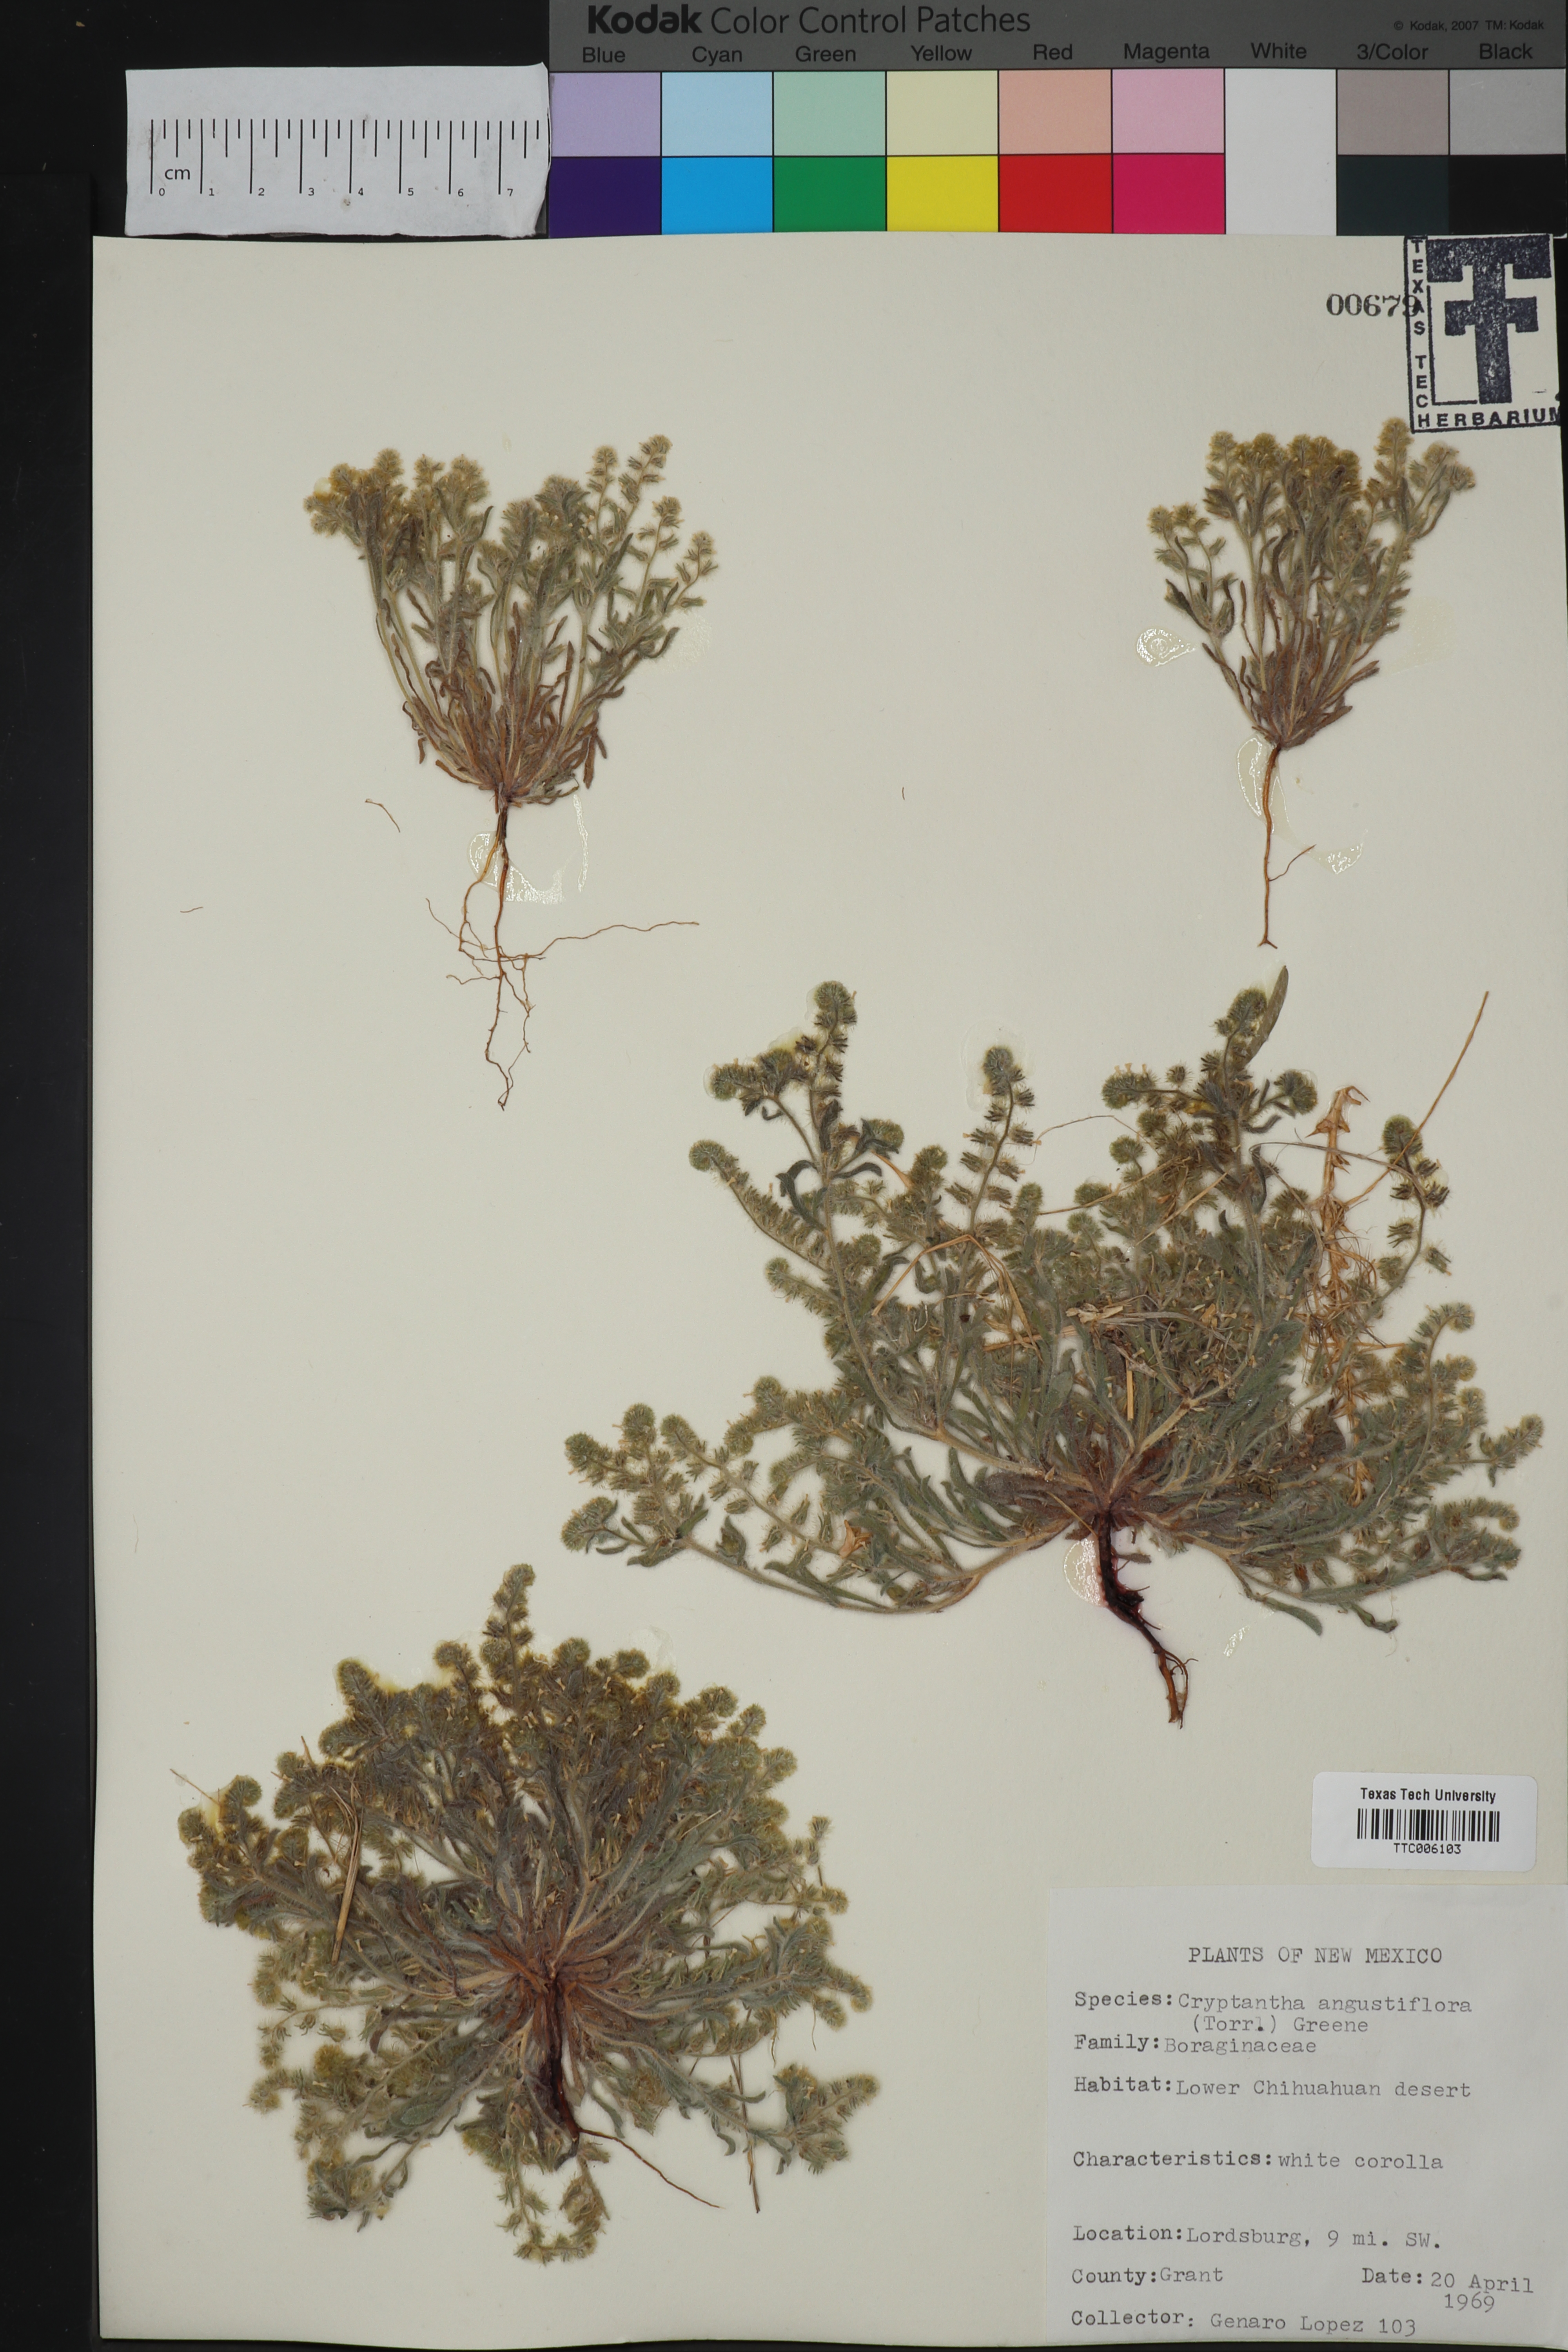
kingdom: Plantae
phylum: Tracheophyta
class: Magnoliopsida
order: Boraginales
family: Boraginaceae
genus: Johnstonella
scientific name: Johnstonella angustifolia
